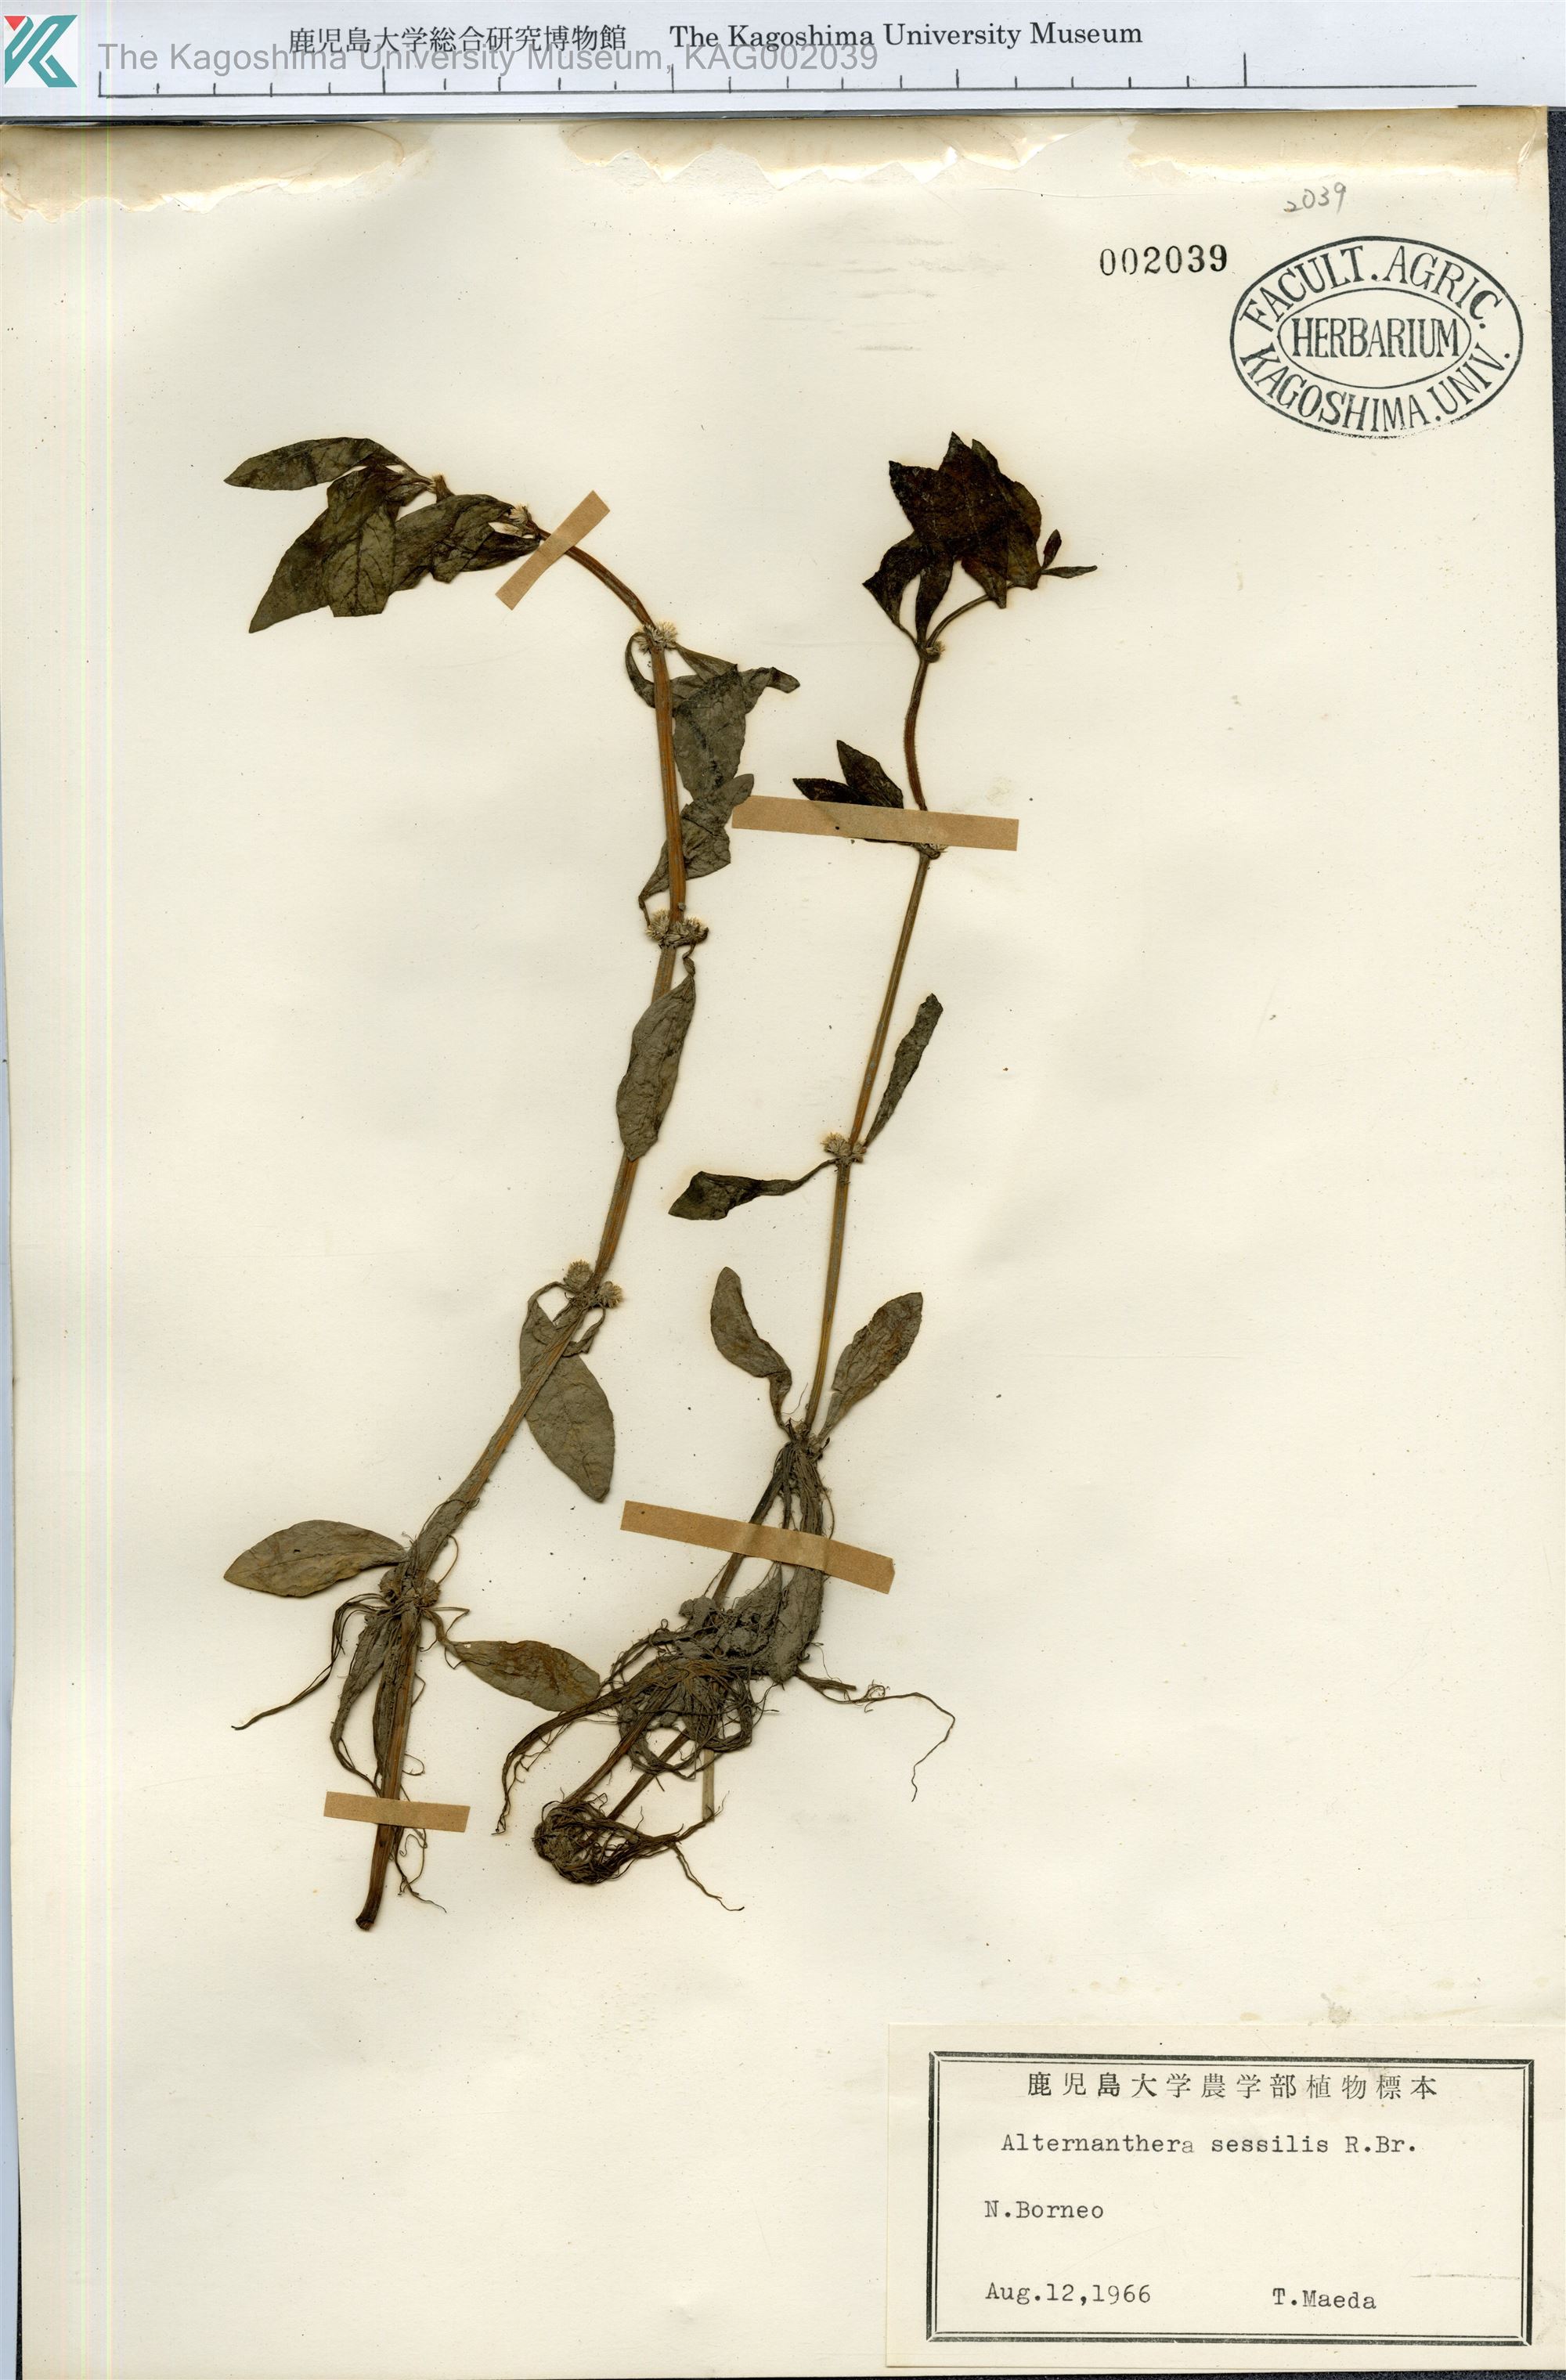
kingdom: Plantae
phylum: Tracheophyta
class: Magnoliopsida
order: Caryophyllales
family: Amaranthaceae
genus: Alternanthera
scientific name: Alternanthera sessilis
